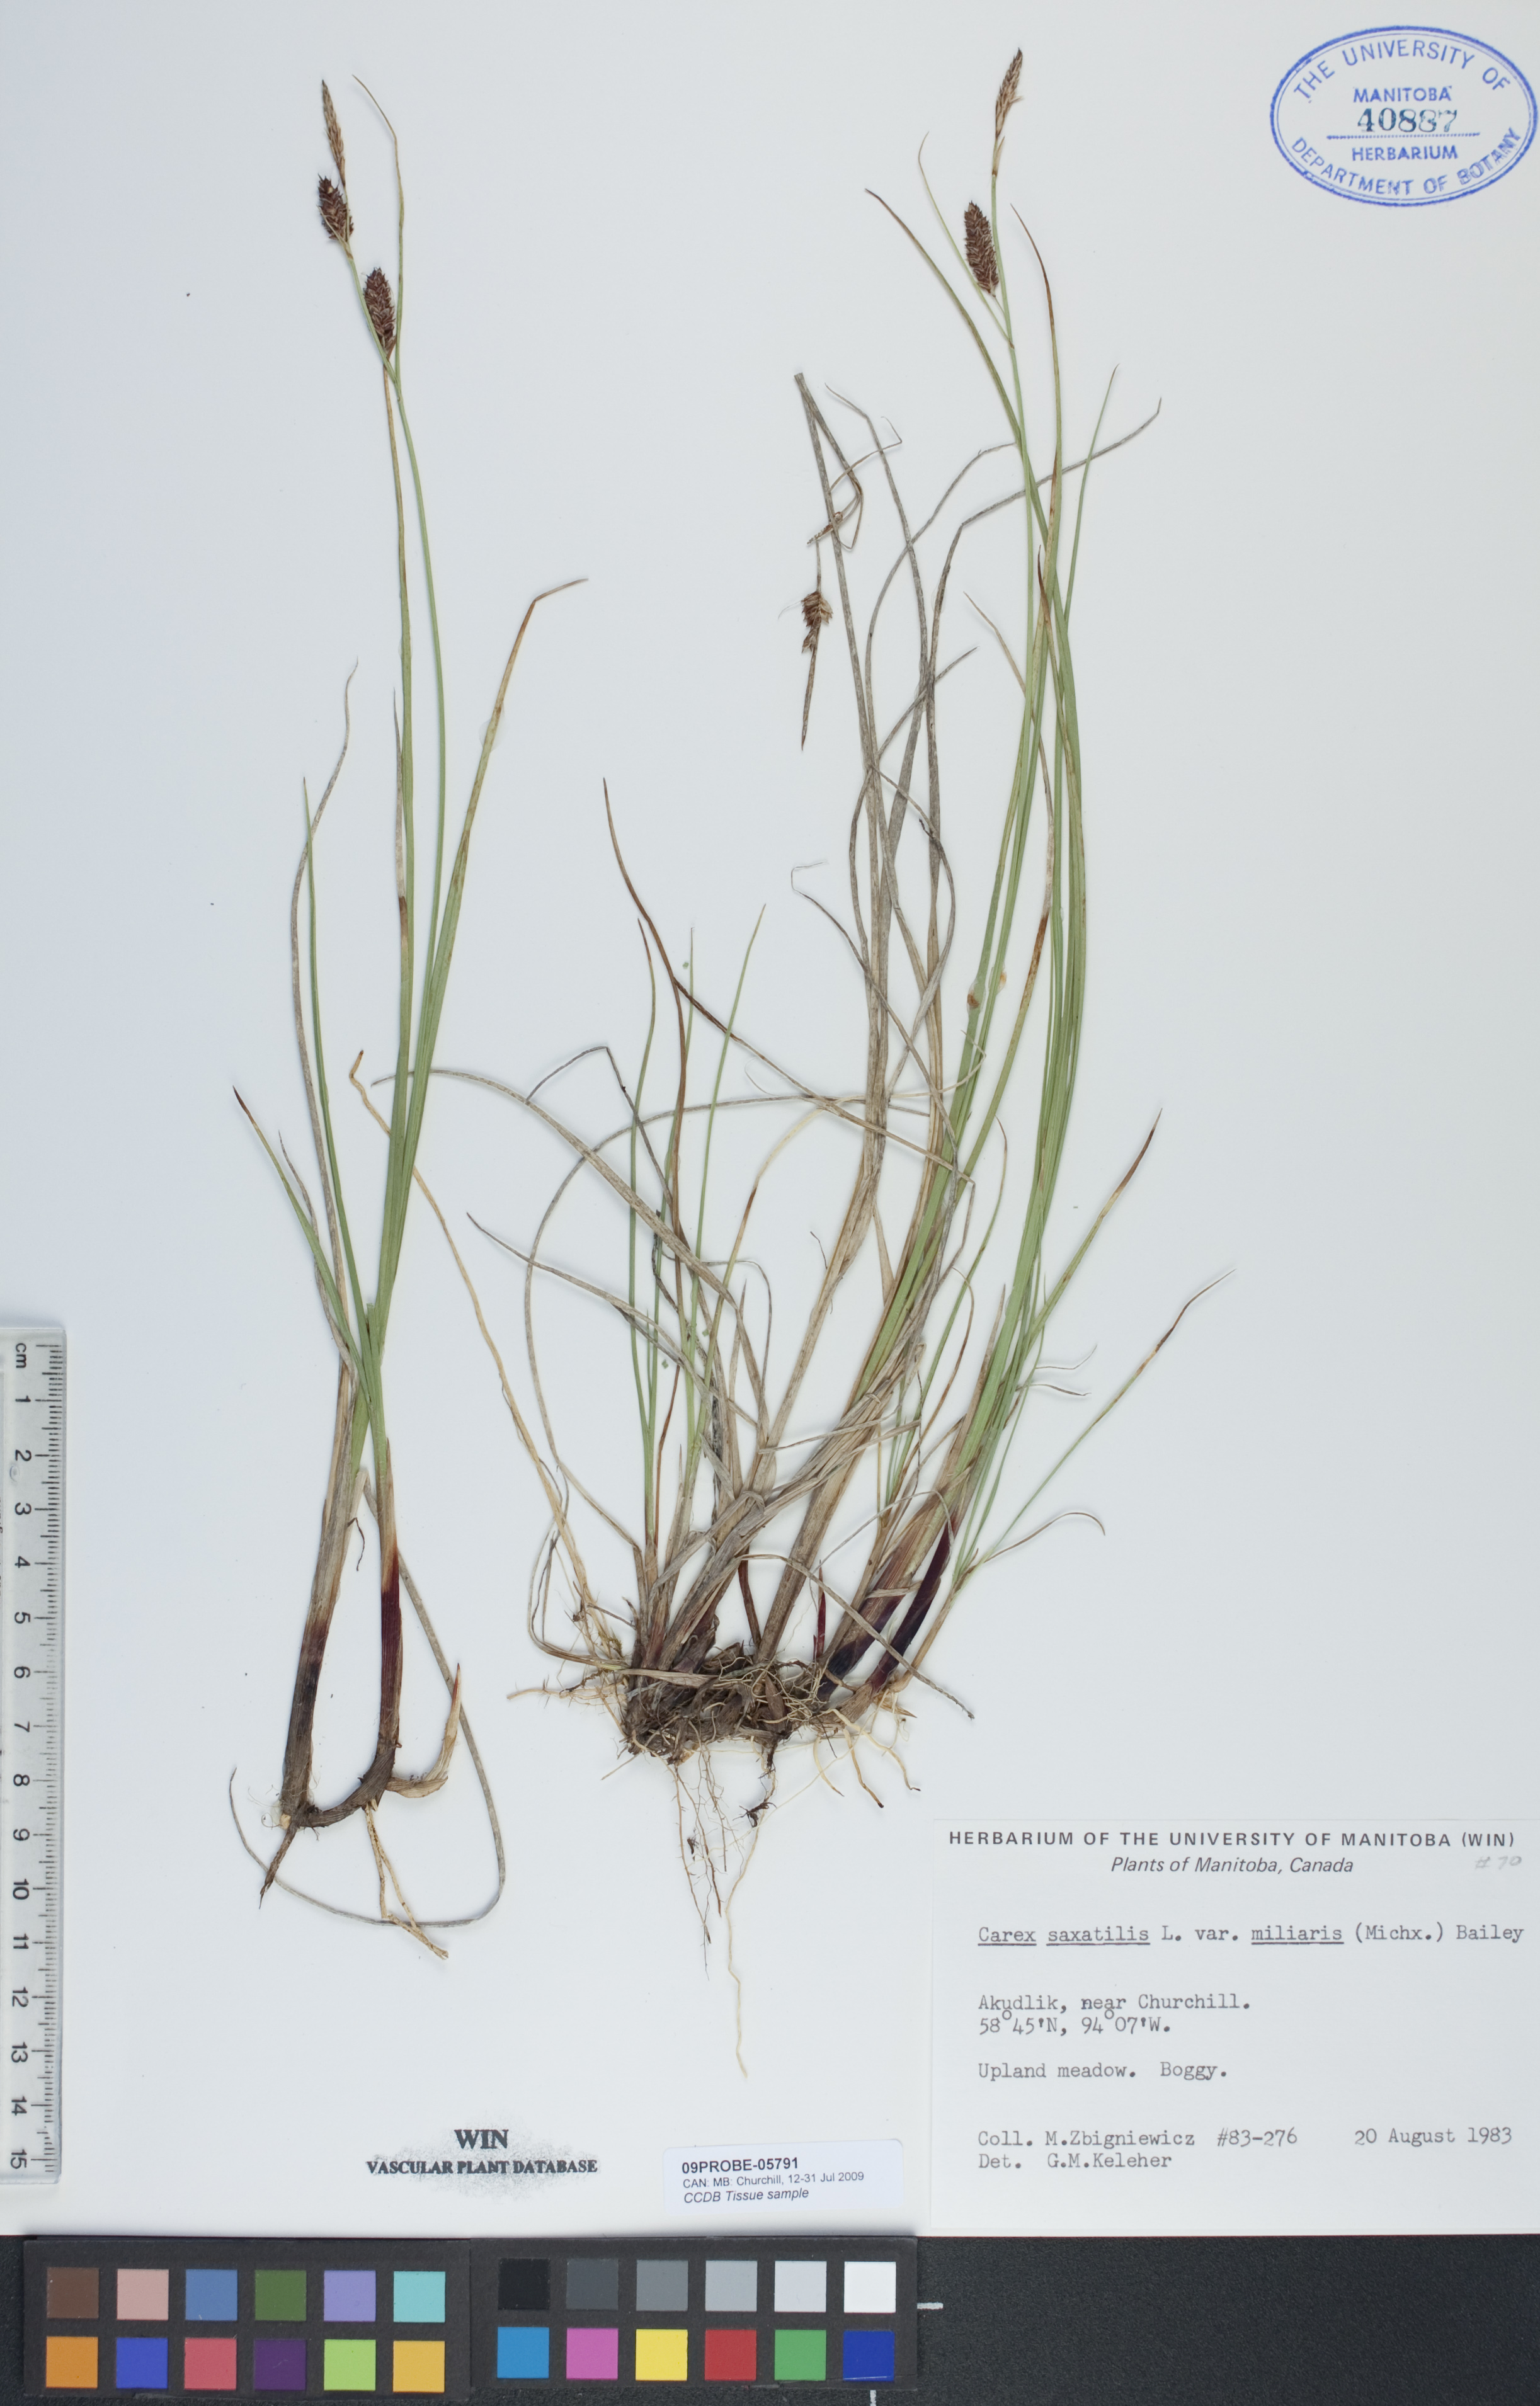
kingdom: Plantae
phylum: Tracheophyta
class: Liliopsida
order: Poales
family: Cyperaceae
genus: Carex
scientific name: Carex miliaris
